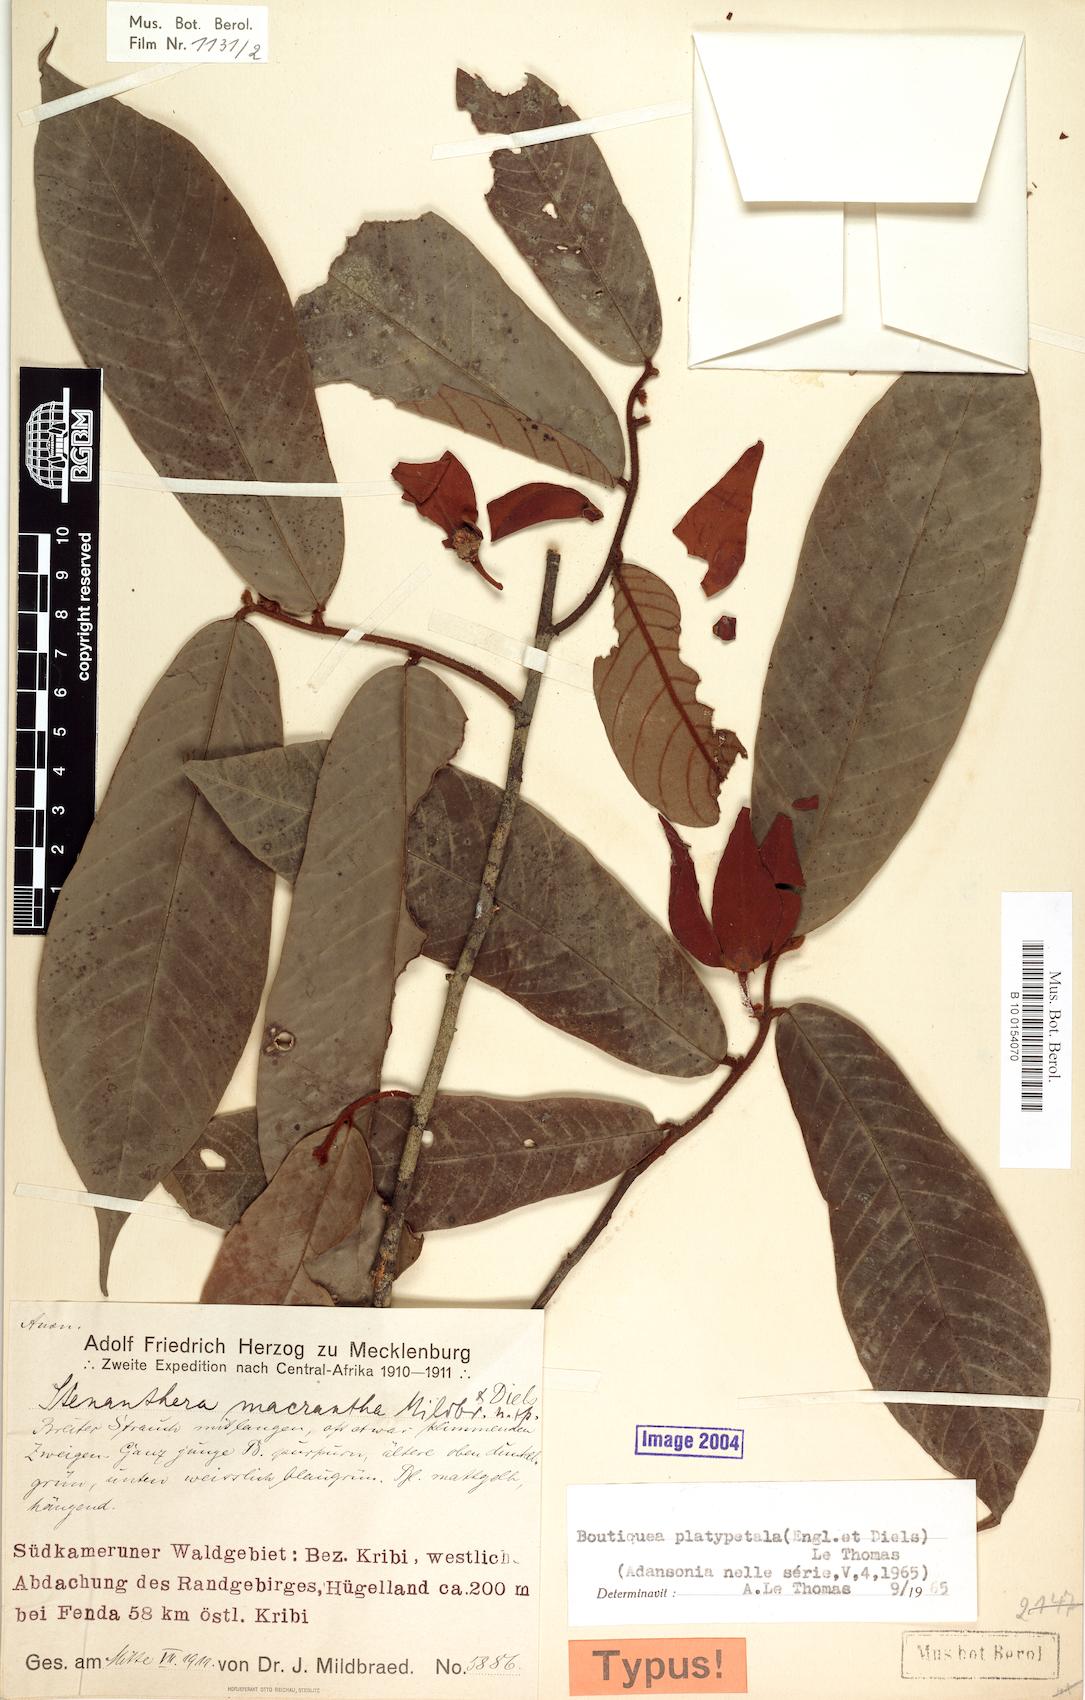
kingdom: Plantae
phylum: Tracheophyta
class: Magnoliopsida
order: Magnoliales
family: Annonaceae
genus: Boutiquea
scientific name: Boutiquea platypetala
